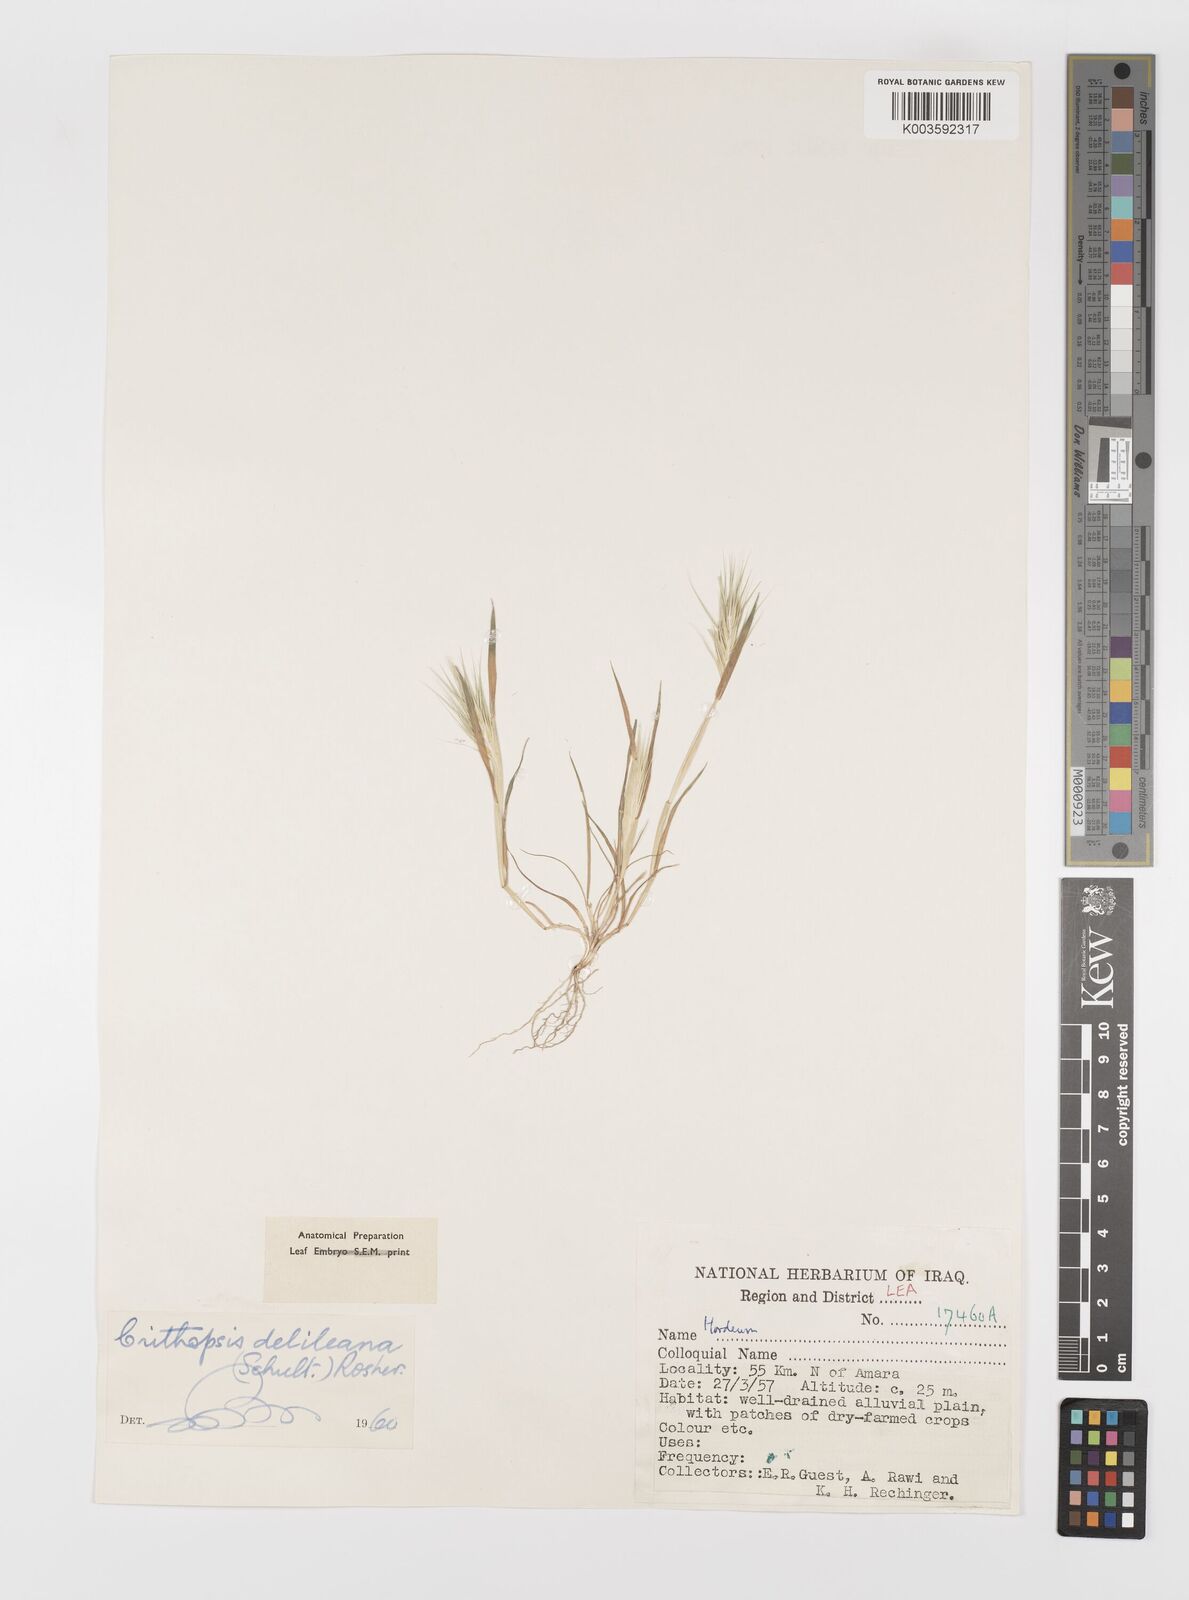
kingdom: Plantae
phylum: Tracheophyta
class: Liliopsida
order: Poales
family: Poaceae
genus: Crithopsis
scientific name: Crithopsis delileana
